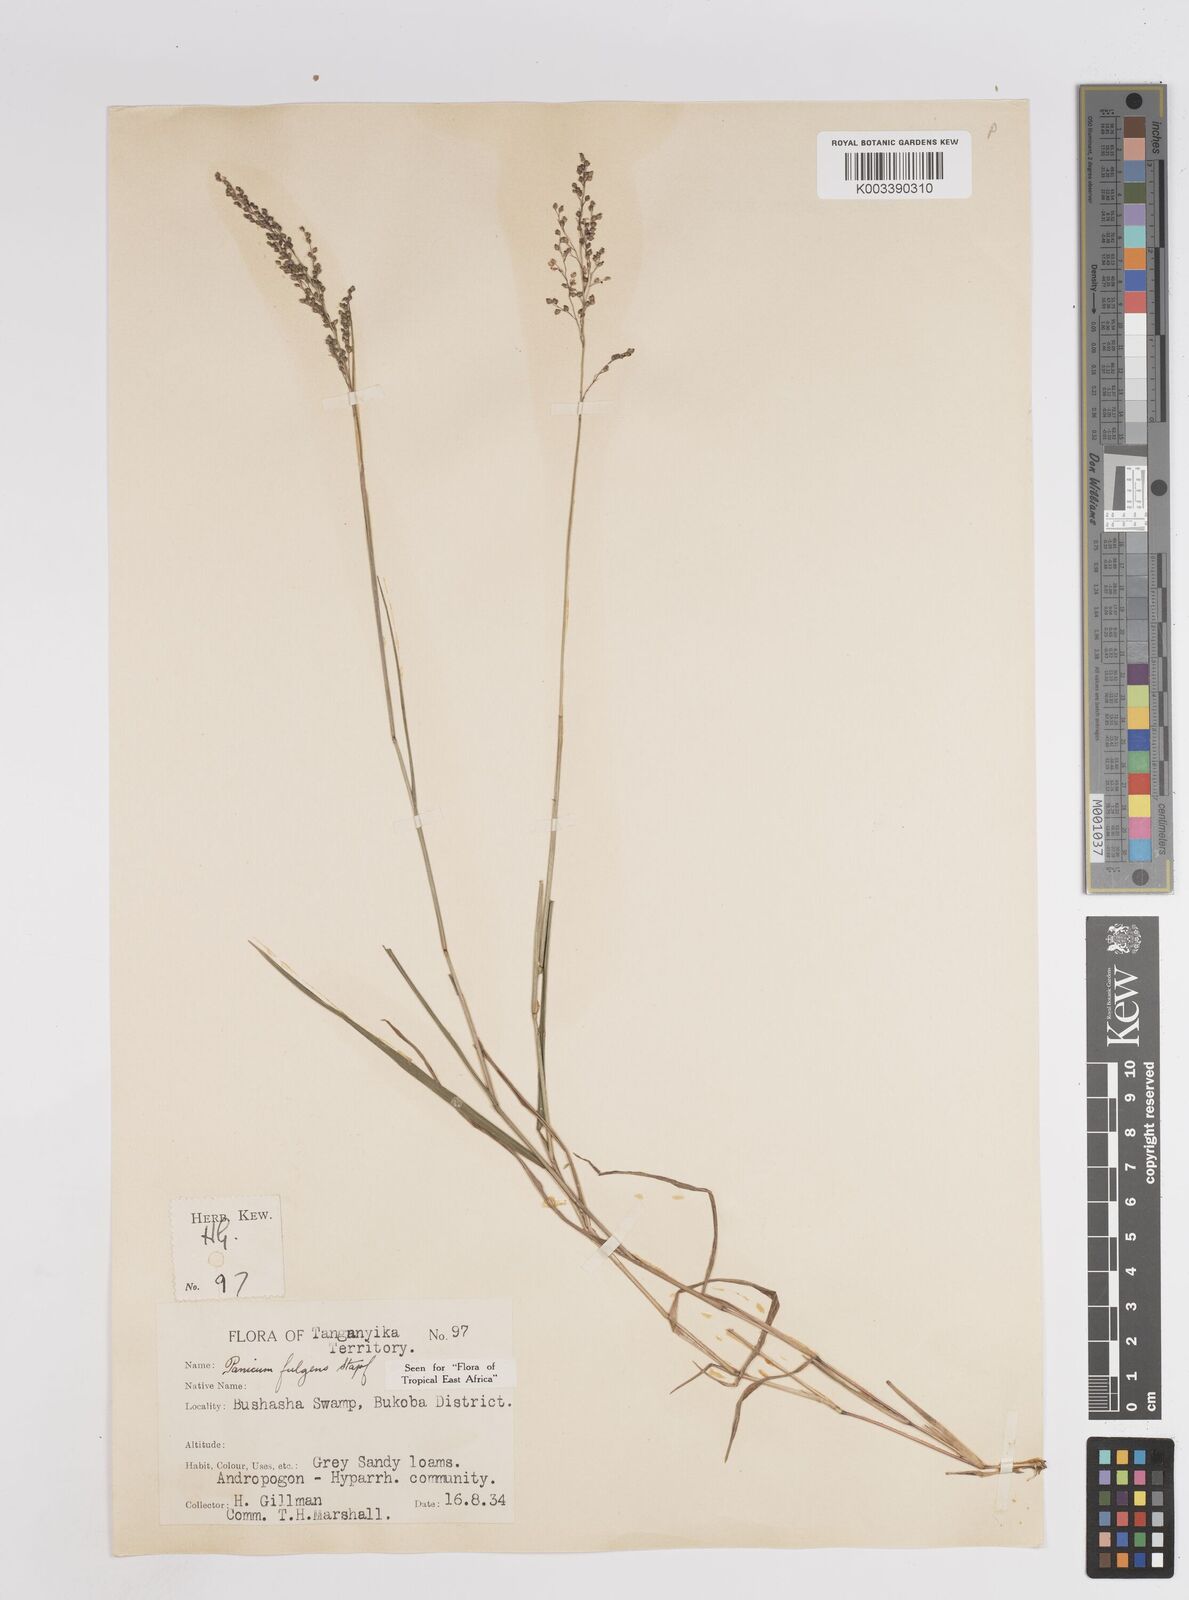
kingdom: Plantae
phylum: Tracheophyta
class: Liliopsida
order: Poales
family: Poaceae
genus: Trichanthecium
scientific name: Trichanthecium nervatum
